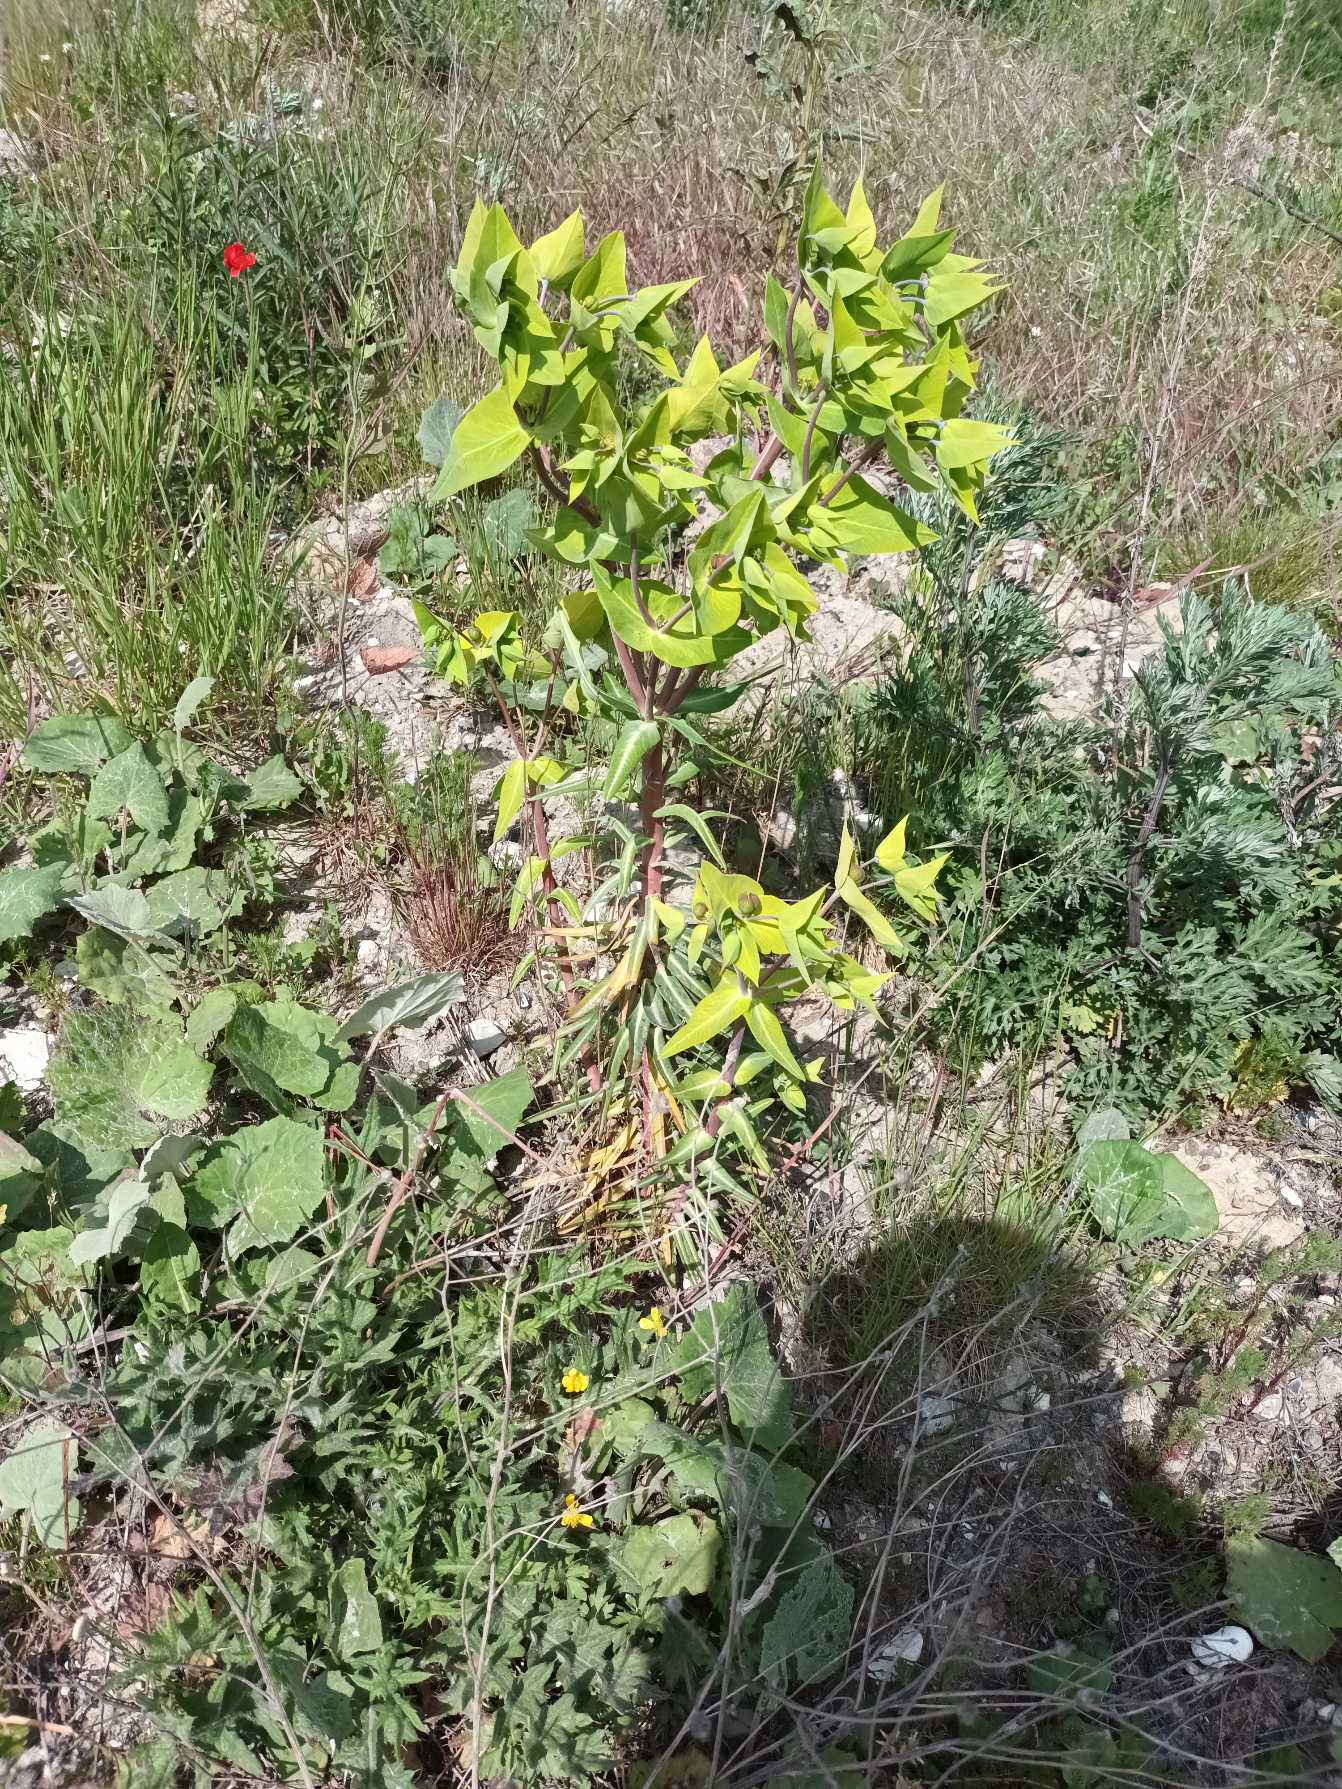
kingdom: Plantae
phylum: Tracheophyta
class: Magnoliopsida
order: Malpighiales
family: Euphorbiaceae
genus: Euphorbia
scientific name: Euphorbia lathyris
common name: Kors-vortemælk
